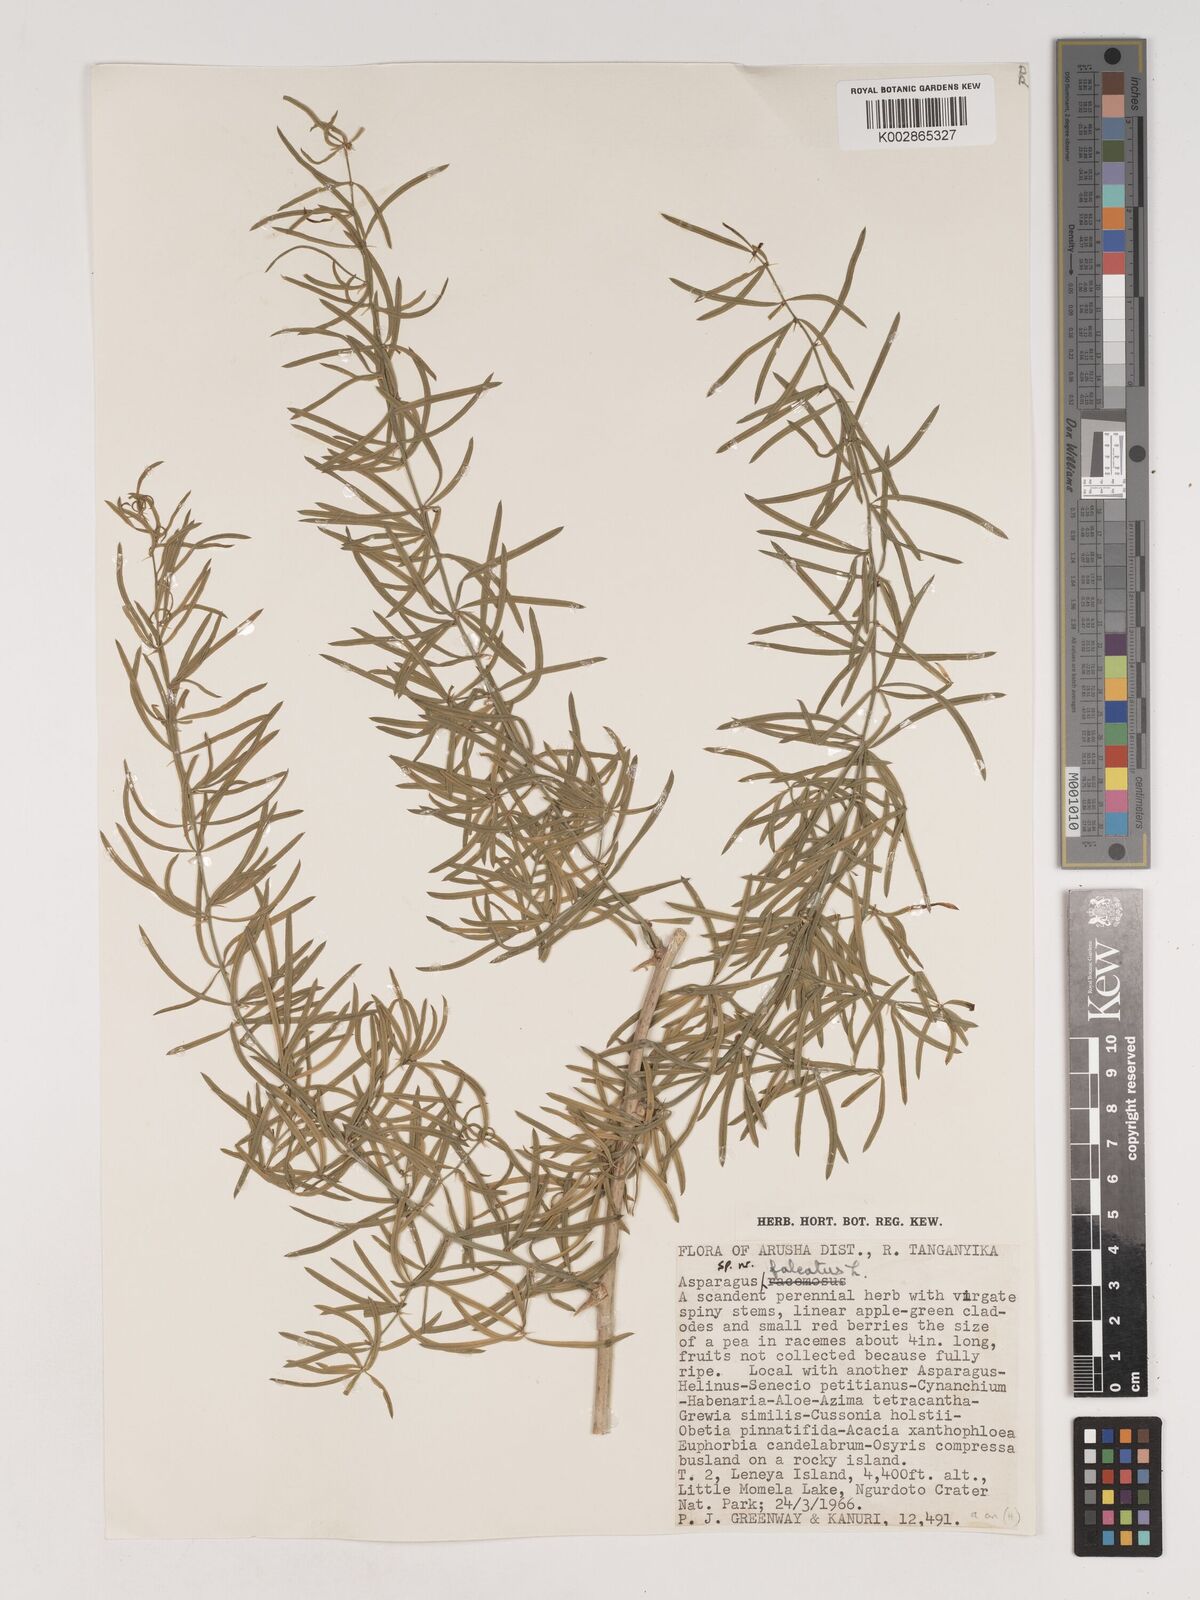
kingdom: Plantae
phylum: Tracheophyta
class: Liliopsida
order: Asparagales
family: Asparagaceae
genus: Asparagus
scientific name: Asparagus
